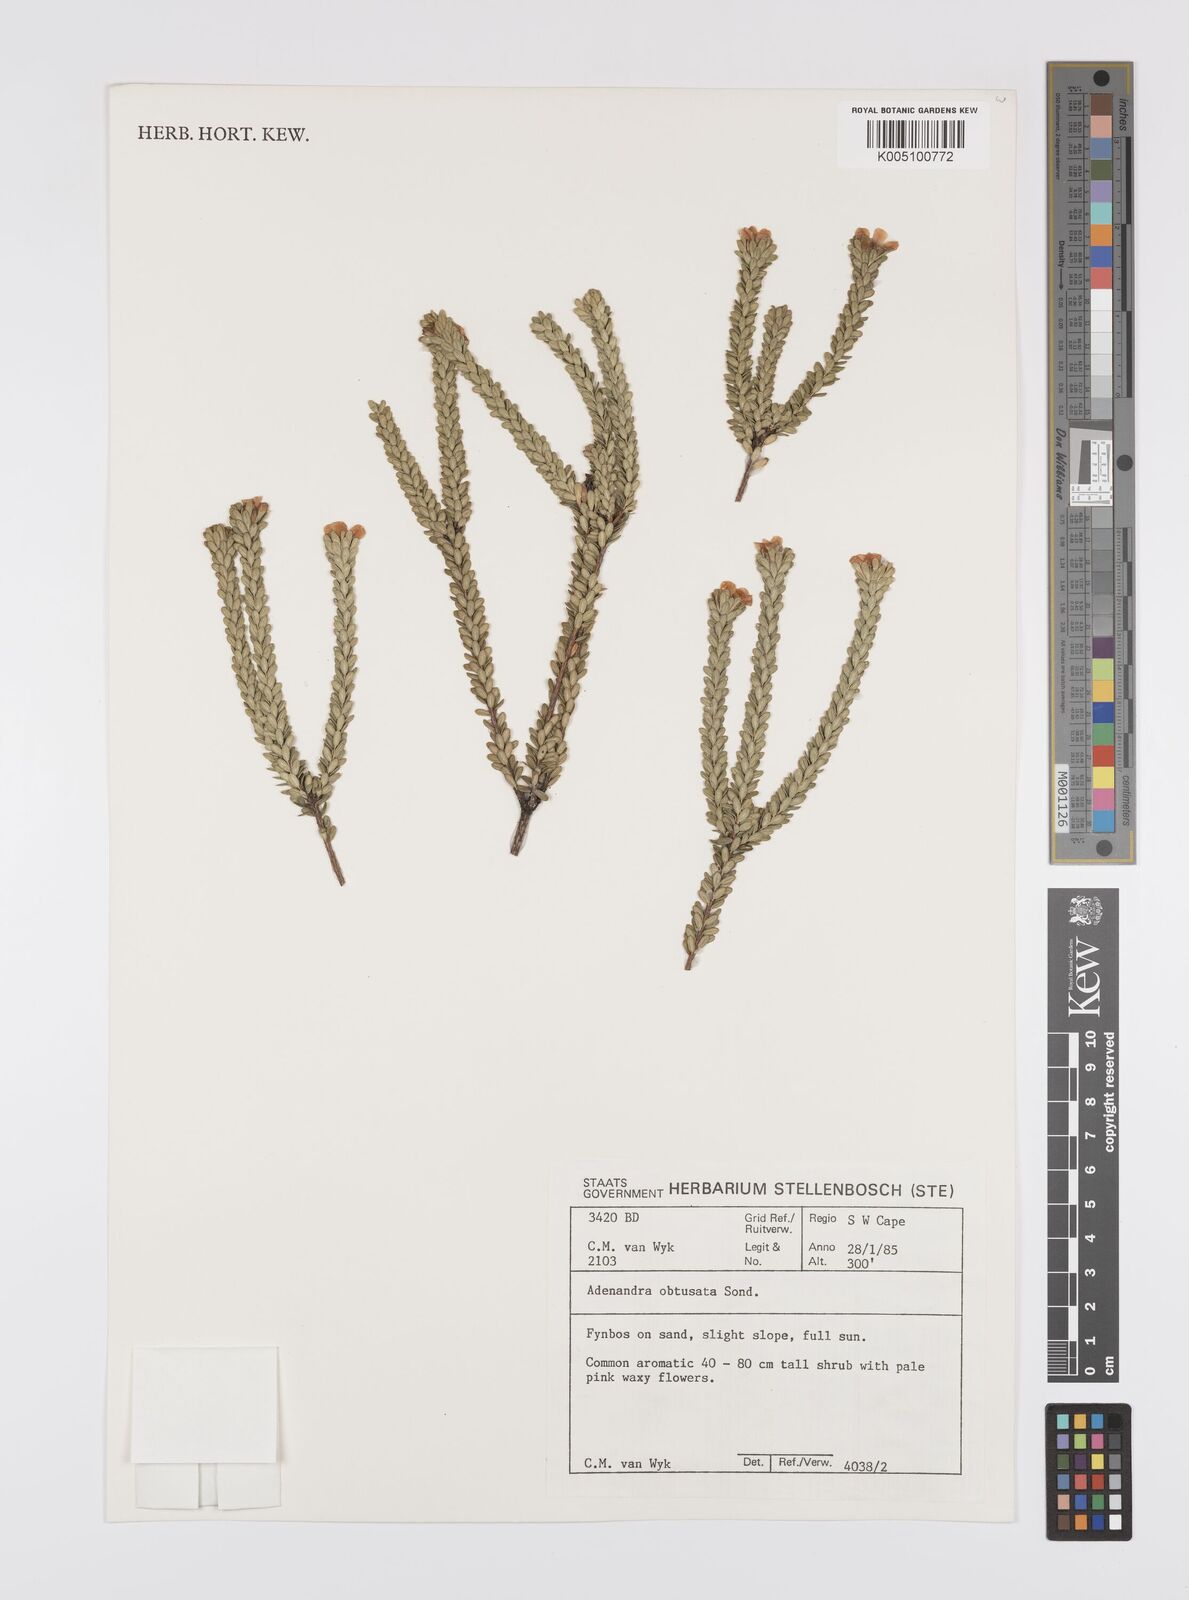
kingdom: Plantae
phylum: Tracheophyta
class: Magnoliopsida
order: Sapindales
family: Rutaceae
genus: Adenandra
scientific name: Adenandra obtusata
